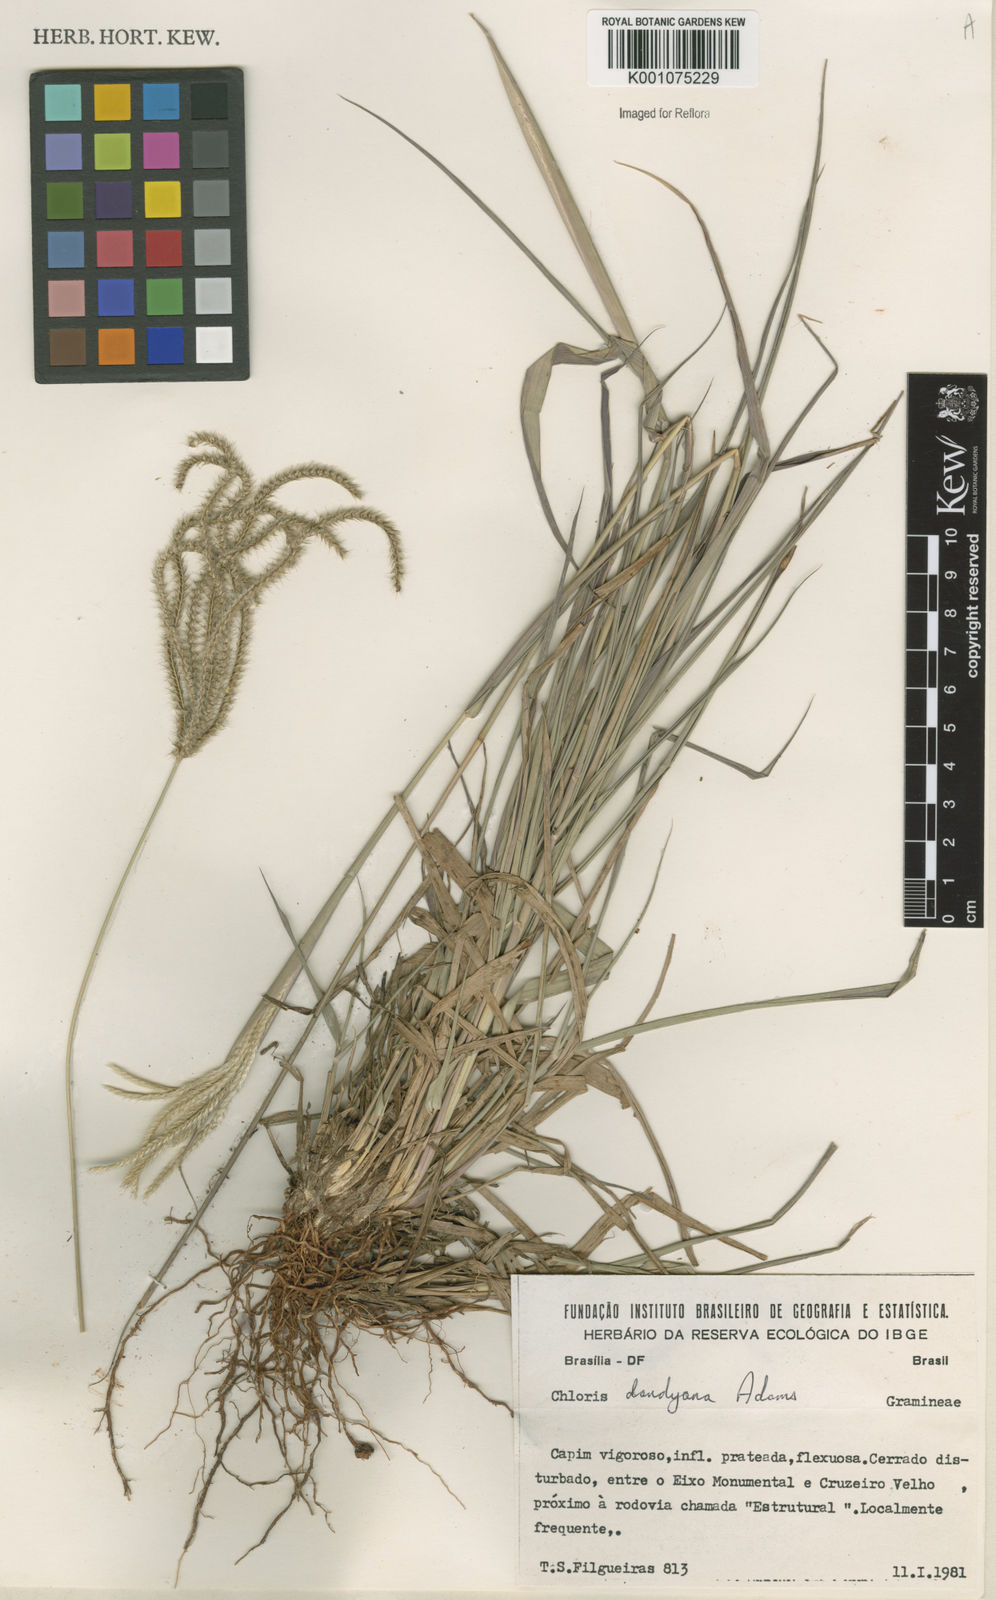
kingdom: Plantae
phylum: Tracheophyta
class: Liliopsida
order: Poales
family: Poaceae
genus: Stapfochloa
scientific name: Stapfochloa elata
